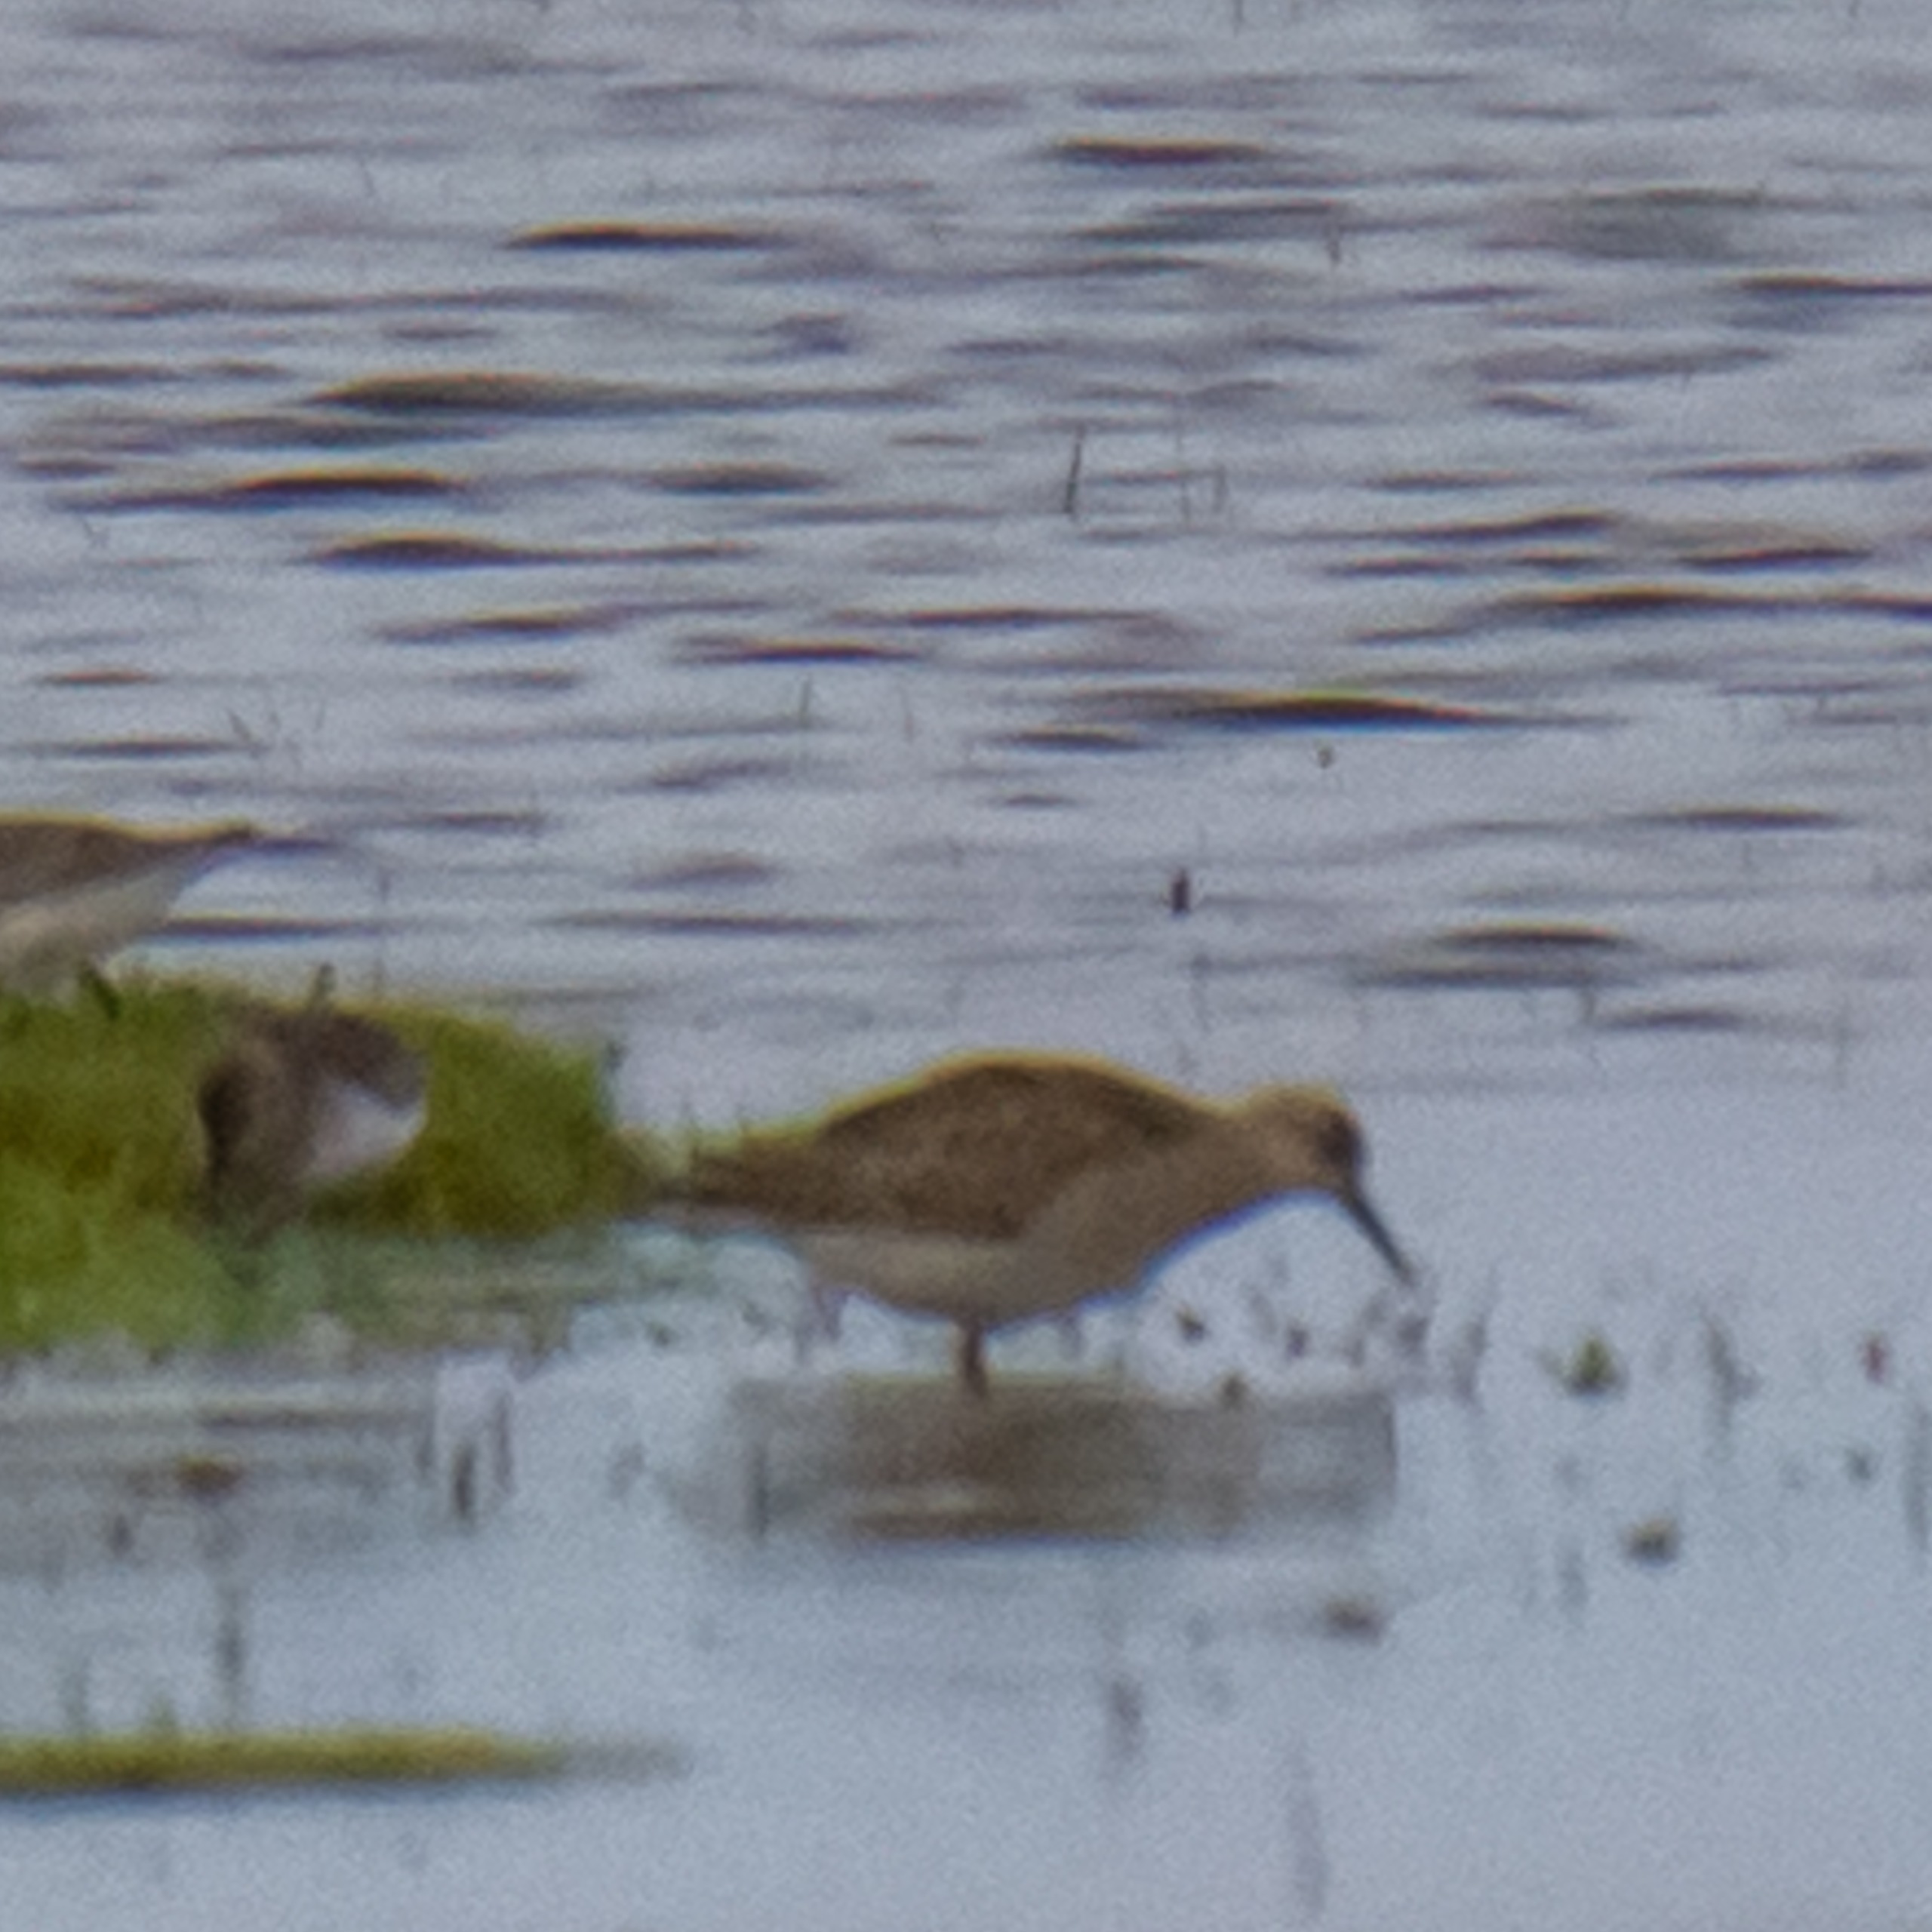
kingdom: Animalia
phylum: Chordata
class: Aves
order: Charadriiformes
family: Scolopacidae
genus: Calidris
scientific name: Calidris pugnax
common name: Brushane
